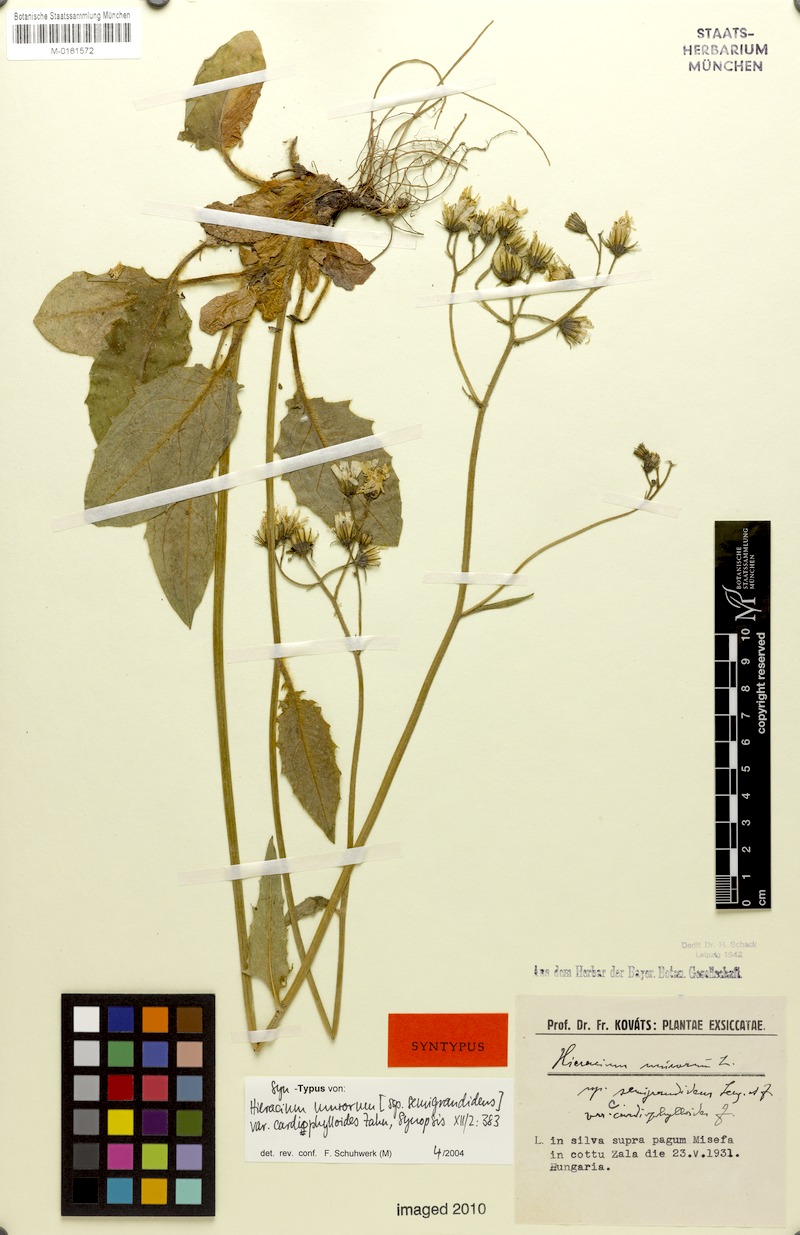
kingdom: Plantae
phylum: Tracheophyta
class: Magnoliopsida
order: Asterales
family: Asteraceae
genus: Hieracium
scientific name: Hieracium murorum
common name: Wall hawkweed
